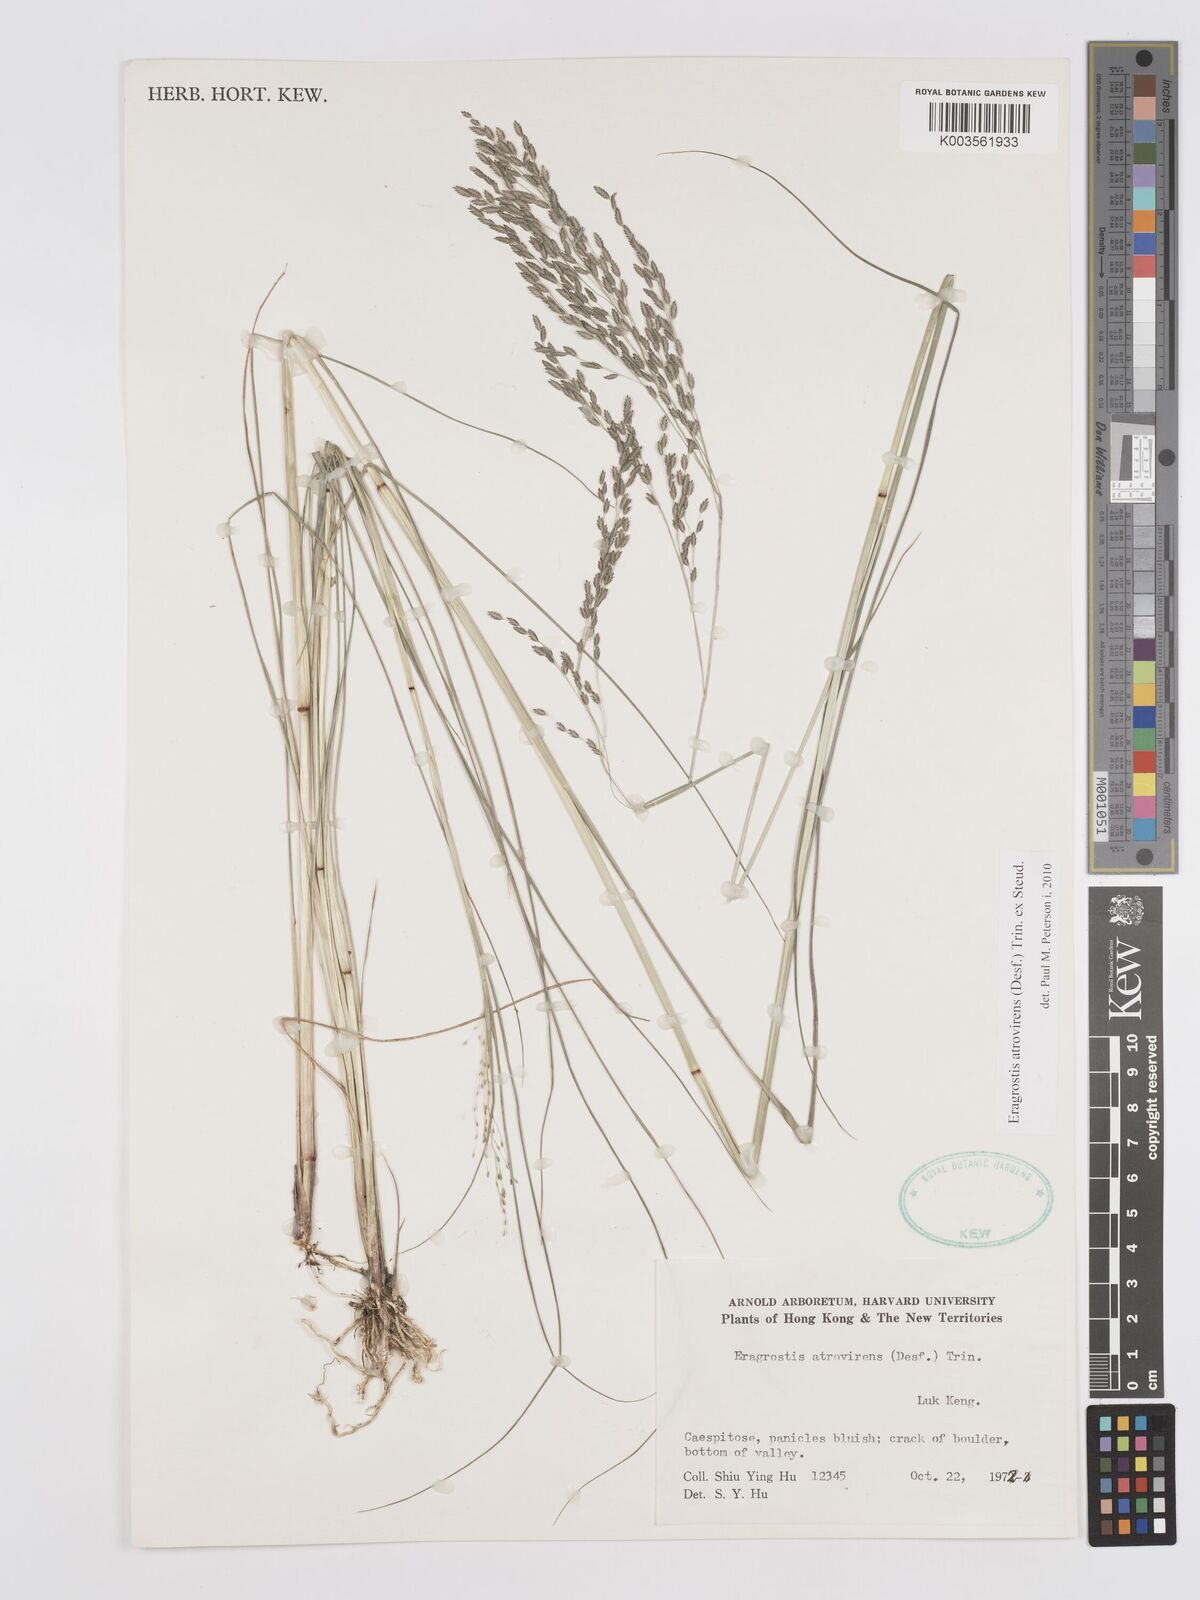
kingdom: Plantae
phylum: Tracheophyta
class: Liliopsida
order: Poales
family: Poaceae
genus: Eragrostis
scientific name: Eragrostis atrovirens
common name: Thalia lovegrass
